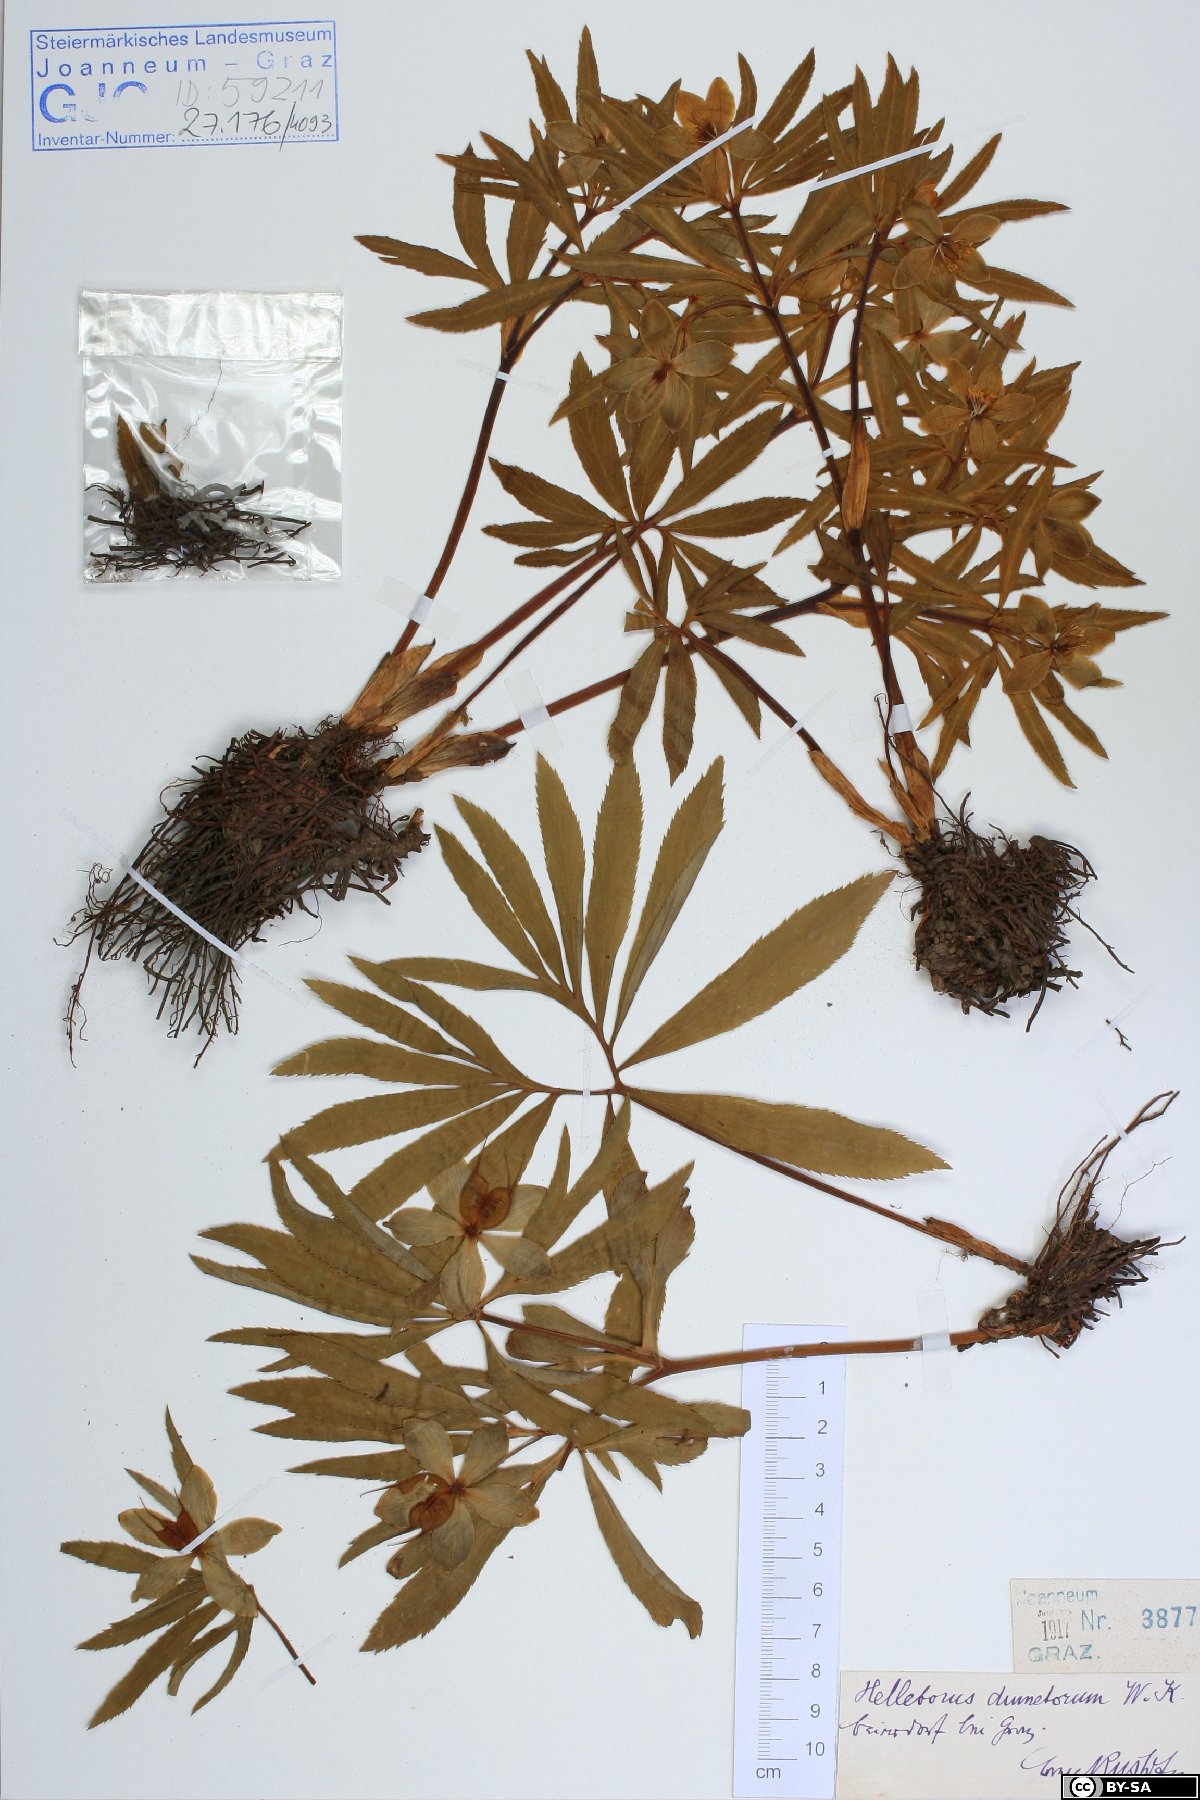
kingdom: Plantae
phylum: Tracheophyta
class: Magnoliopsida
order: Ranunculales
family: Ranunculaceae
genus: Helleborus
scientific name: Helleborus dumetorum
